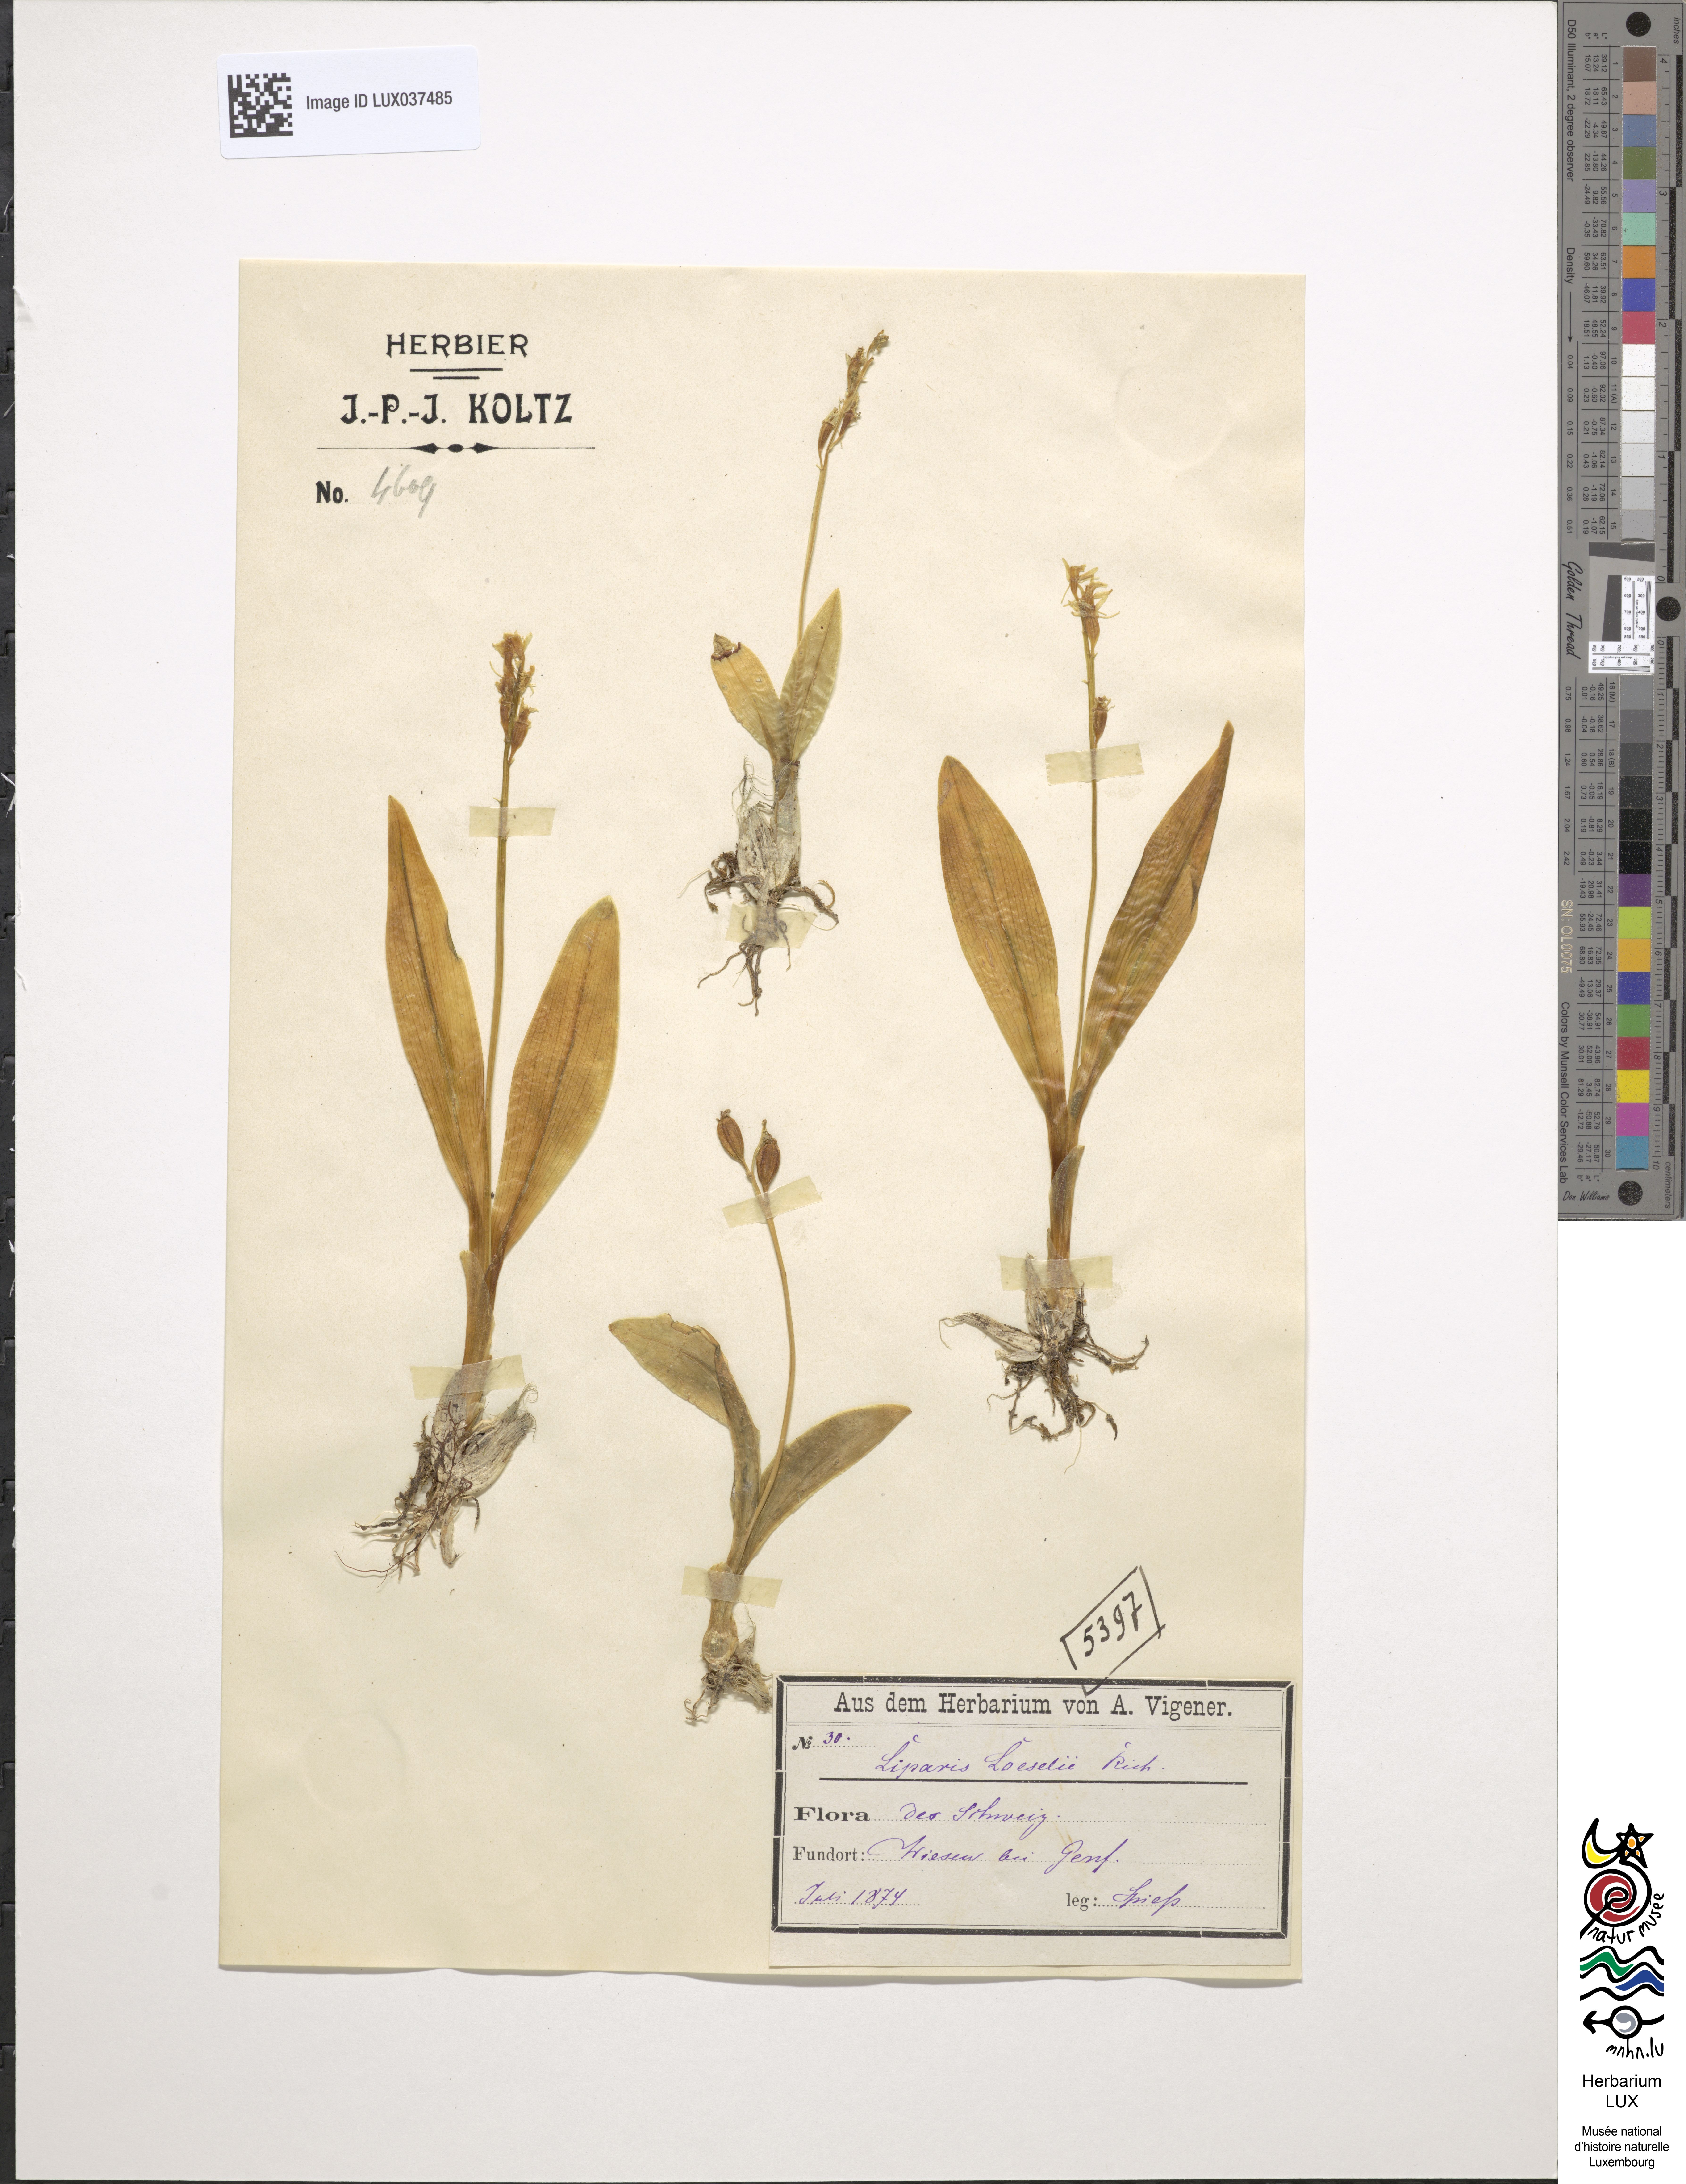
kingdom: Animalia
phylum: Arthropoda
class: Insecta
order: Coleoptera
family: Curculionidae
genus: Liparis
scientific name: Liparis loeselii
